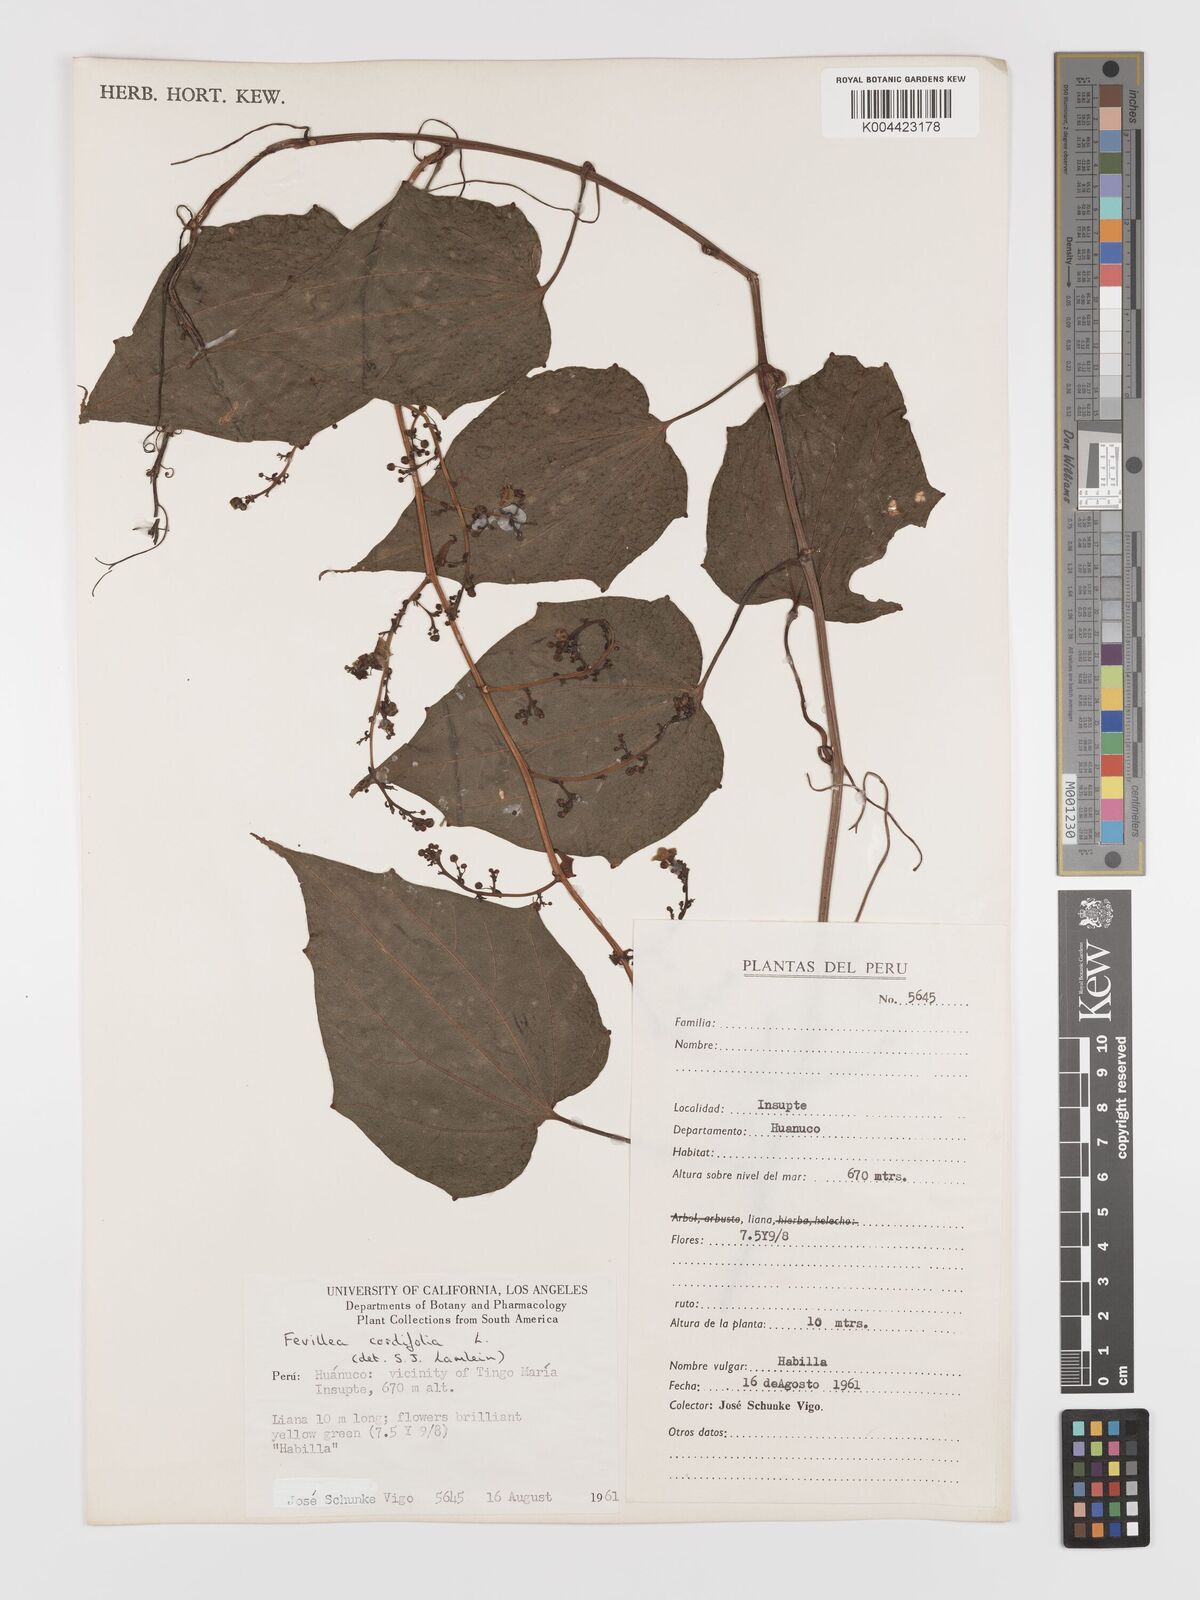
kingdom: Plantae
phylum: Tracheophyta
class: Magnoliopsida
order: Cucurbitales
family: Cucurbitaceae
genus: Fevillea
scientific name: Fevillea
